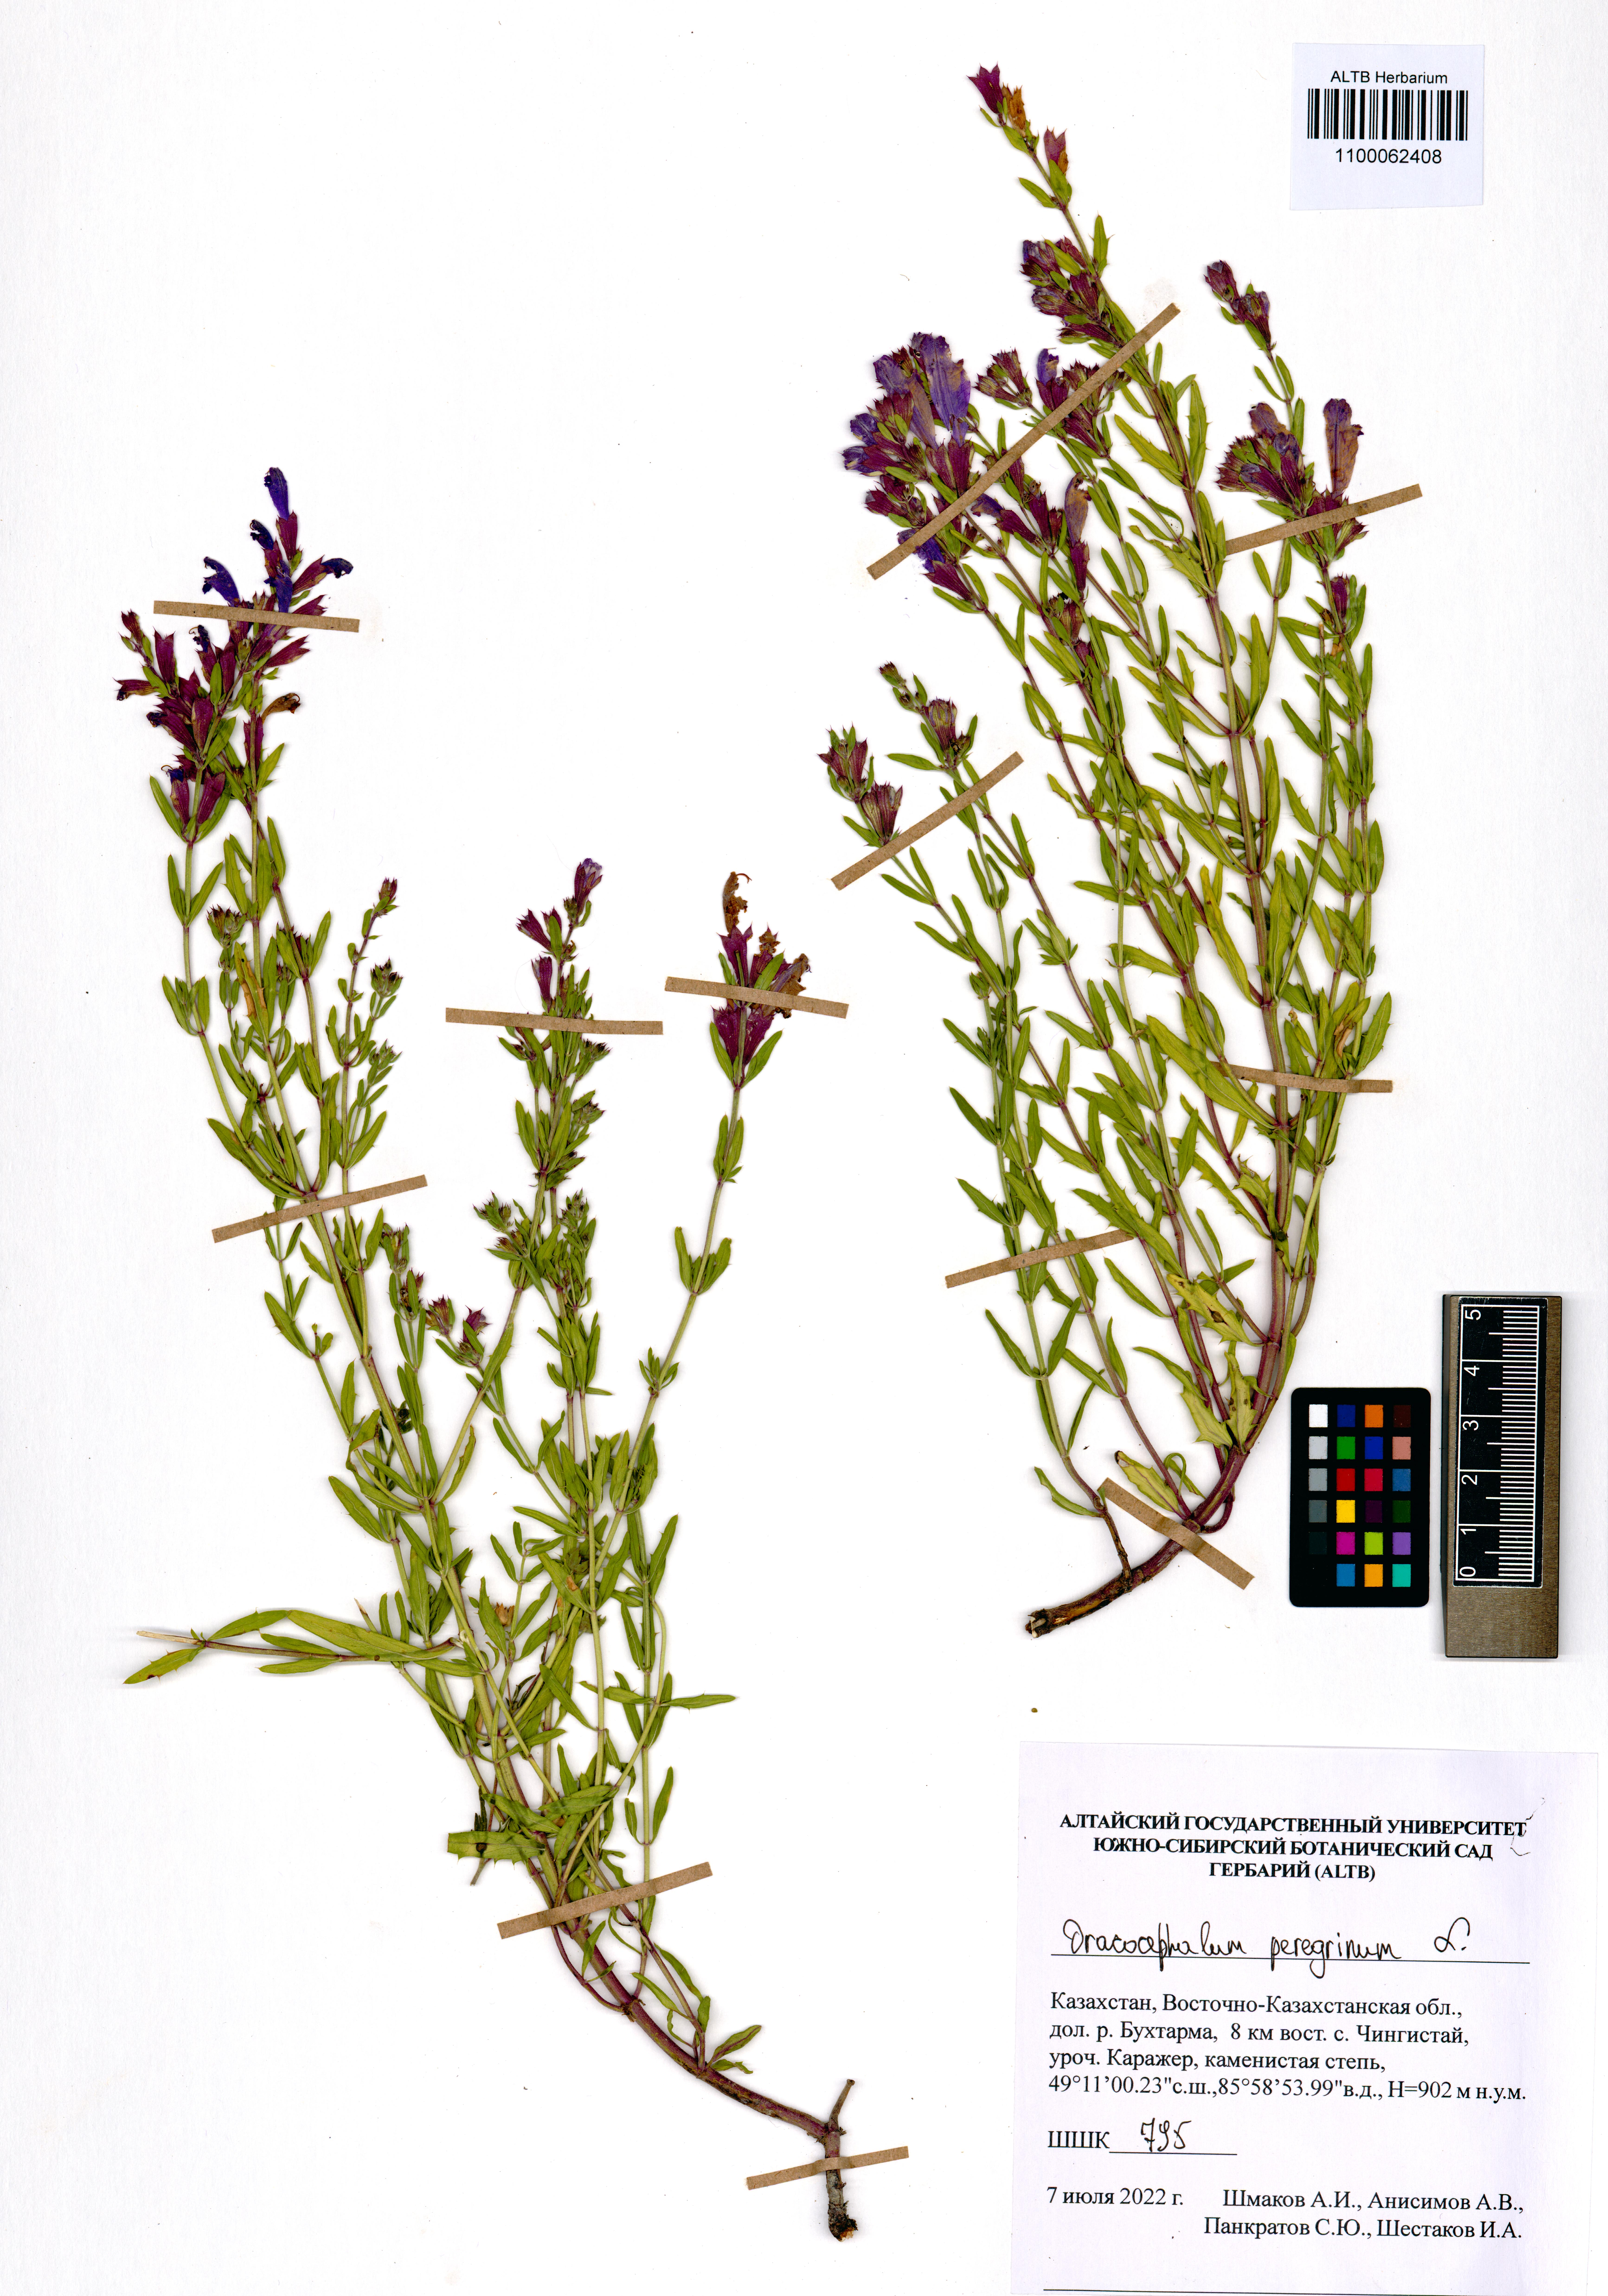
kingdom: Plantae
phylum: Tracheophyta
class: Magnoliopsida
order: Lamiales
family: Lamiaceae
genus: Dracocephalum
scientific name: Dracocephalum peregrinum
